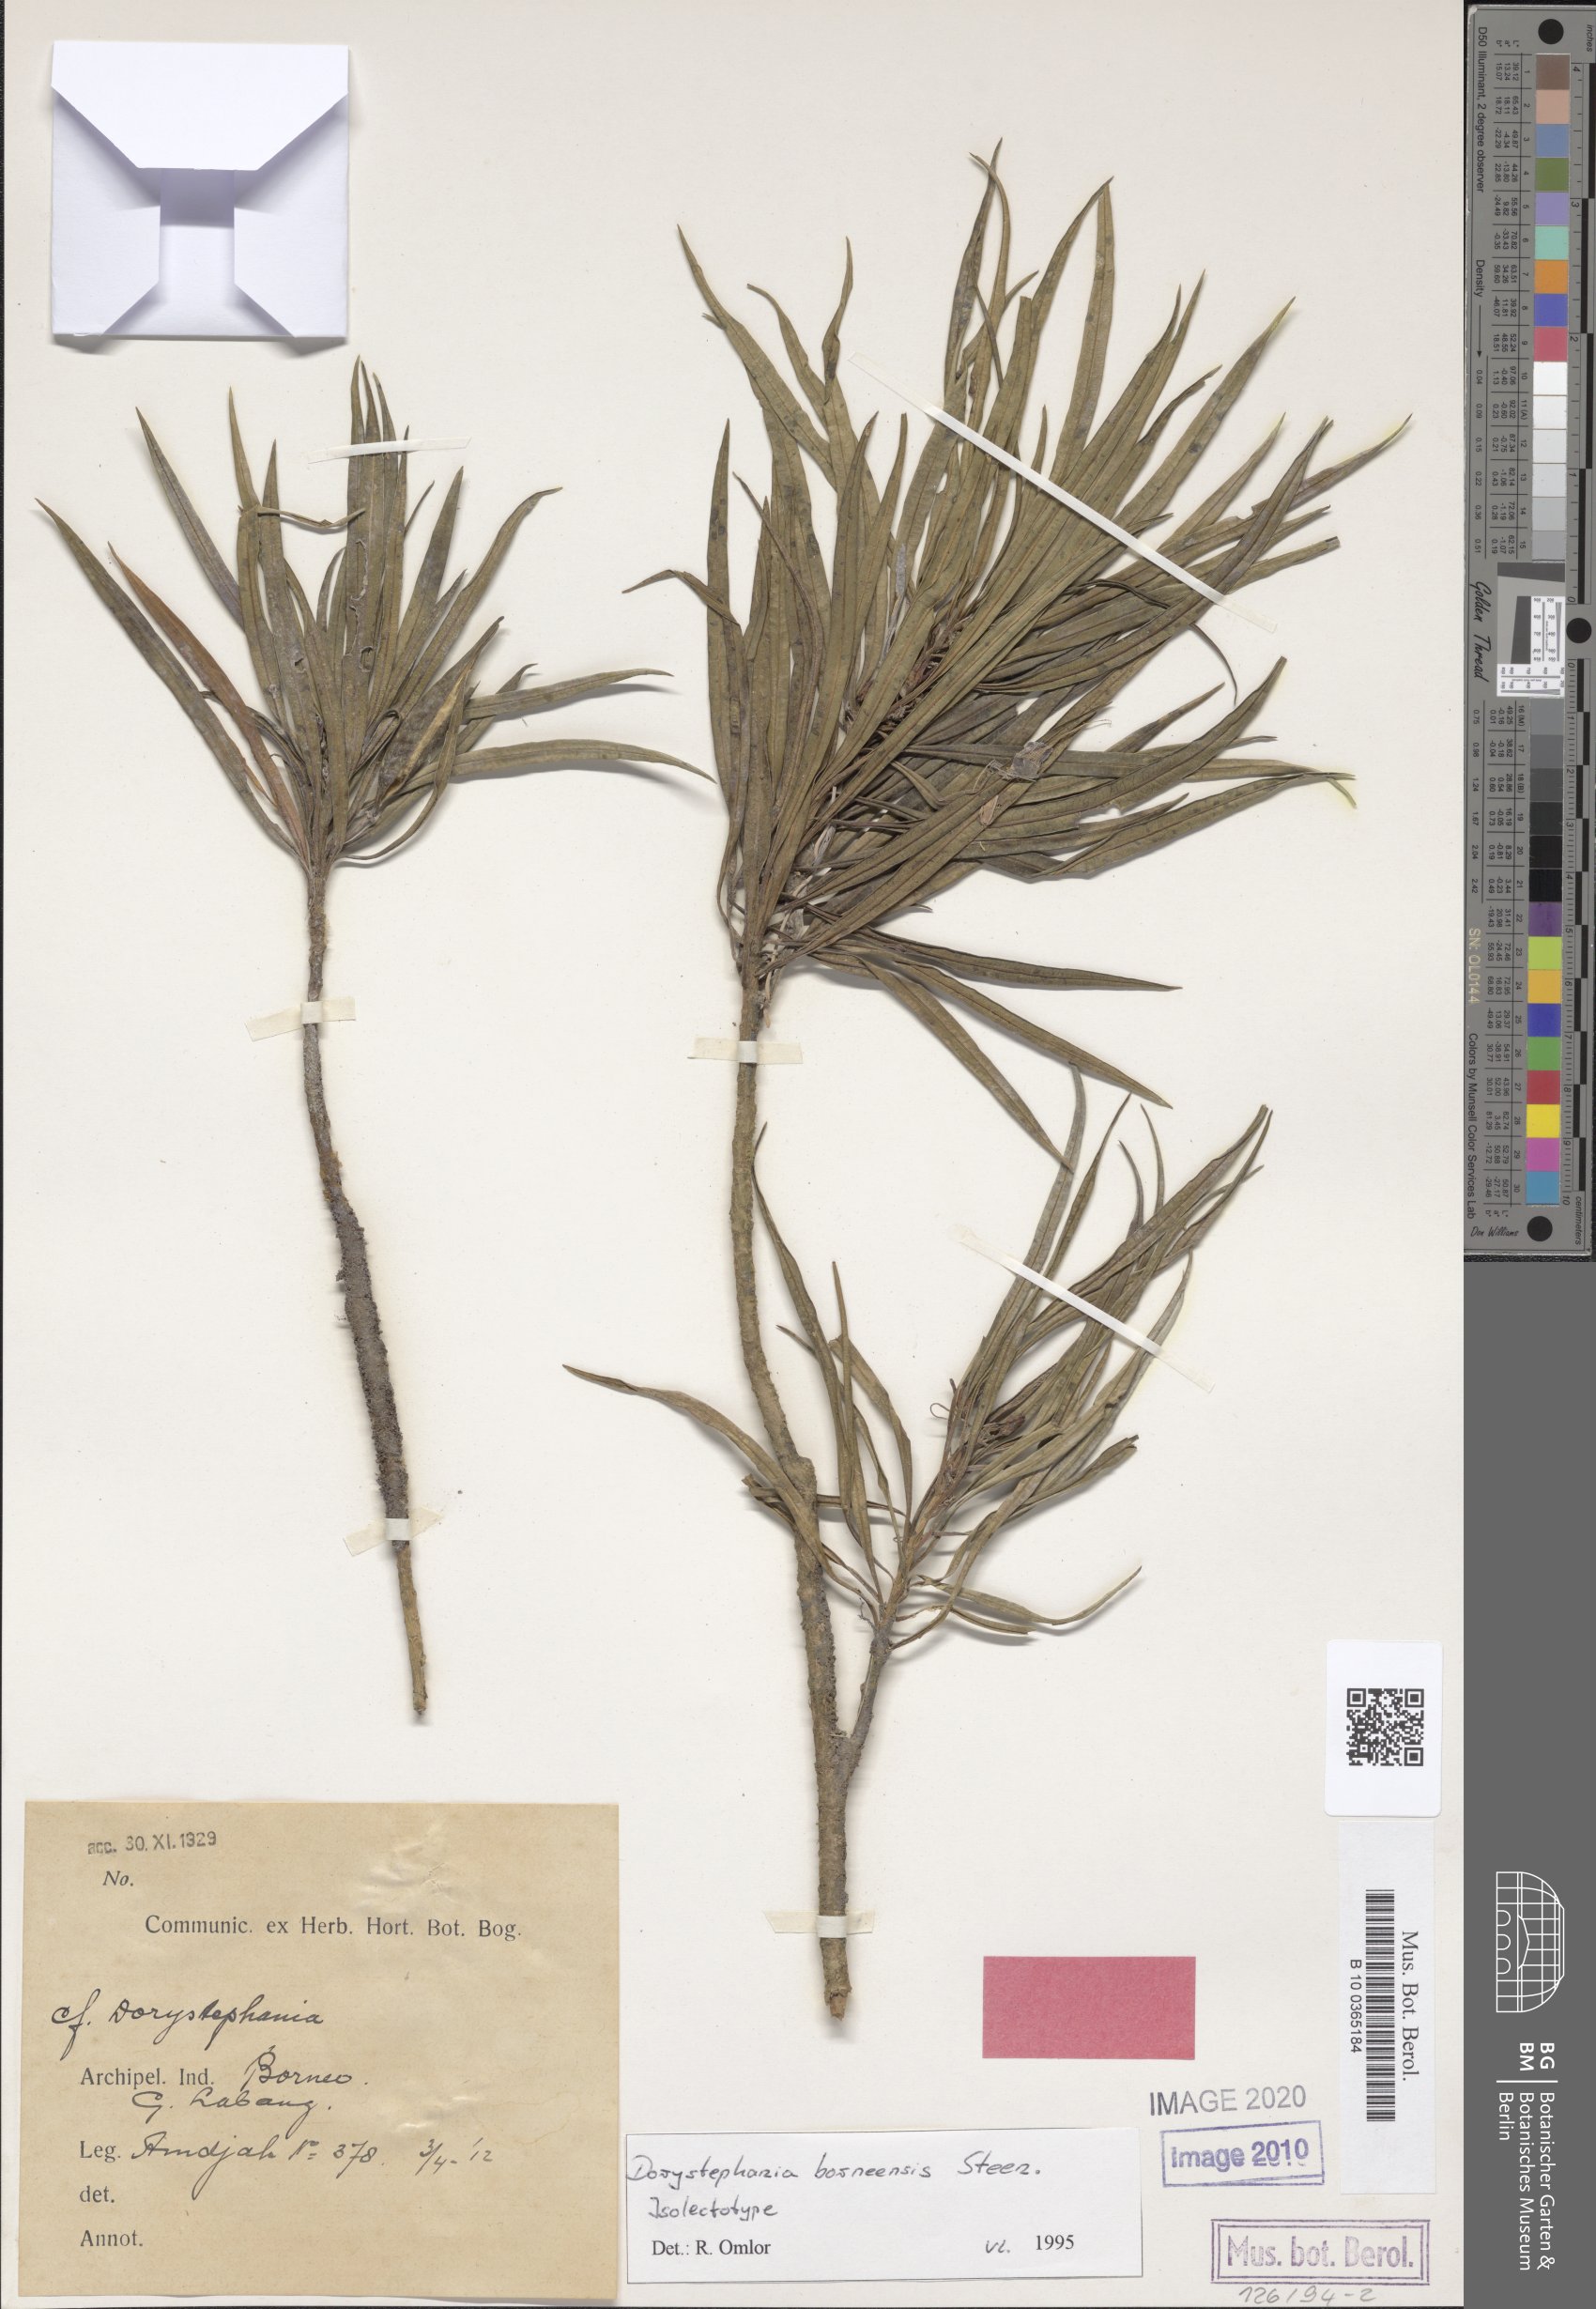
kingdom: Plantae
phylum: Tracheophyta
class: Magnoliopsida
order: Gentianales
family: Apocynaceae
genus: Sarcolobus
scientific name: Sarcolobus borneensis
